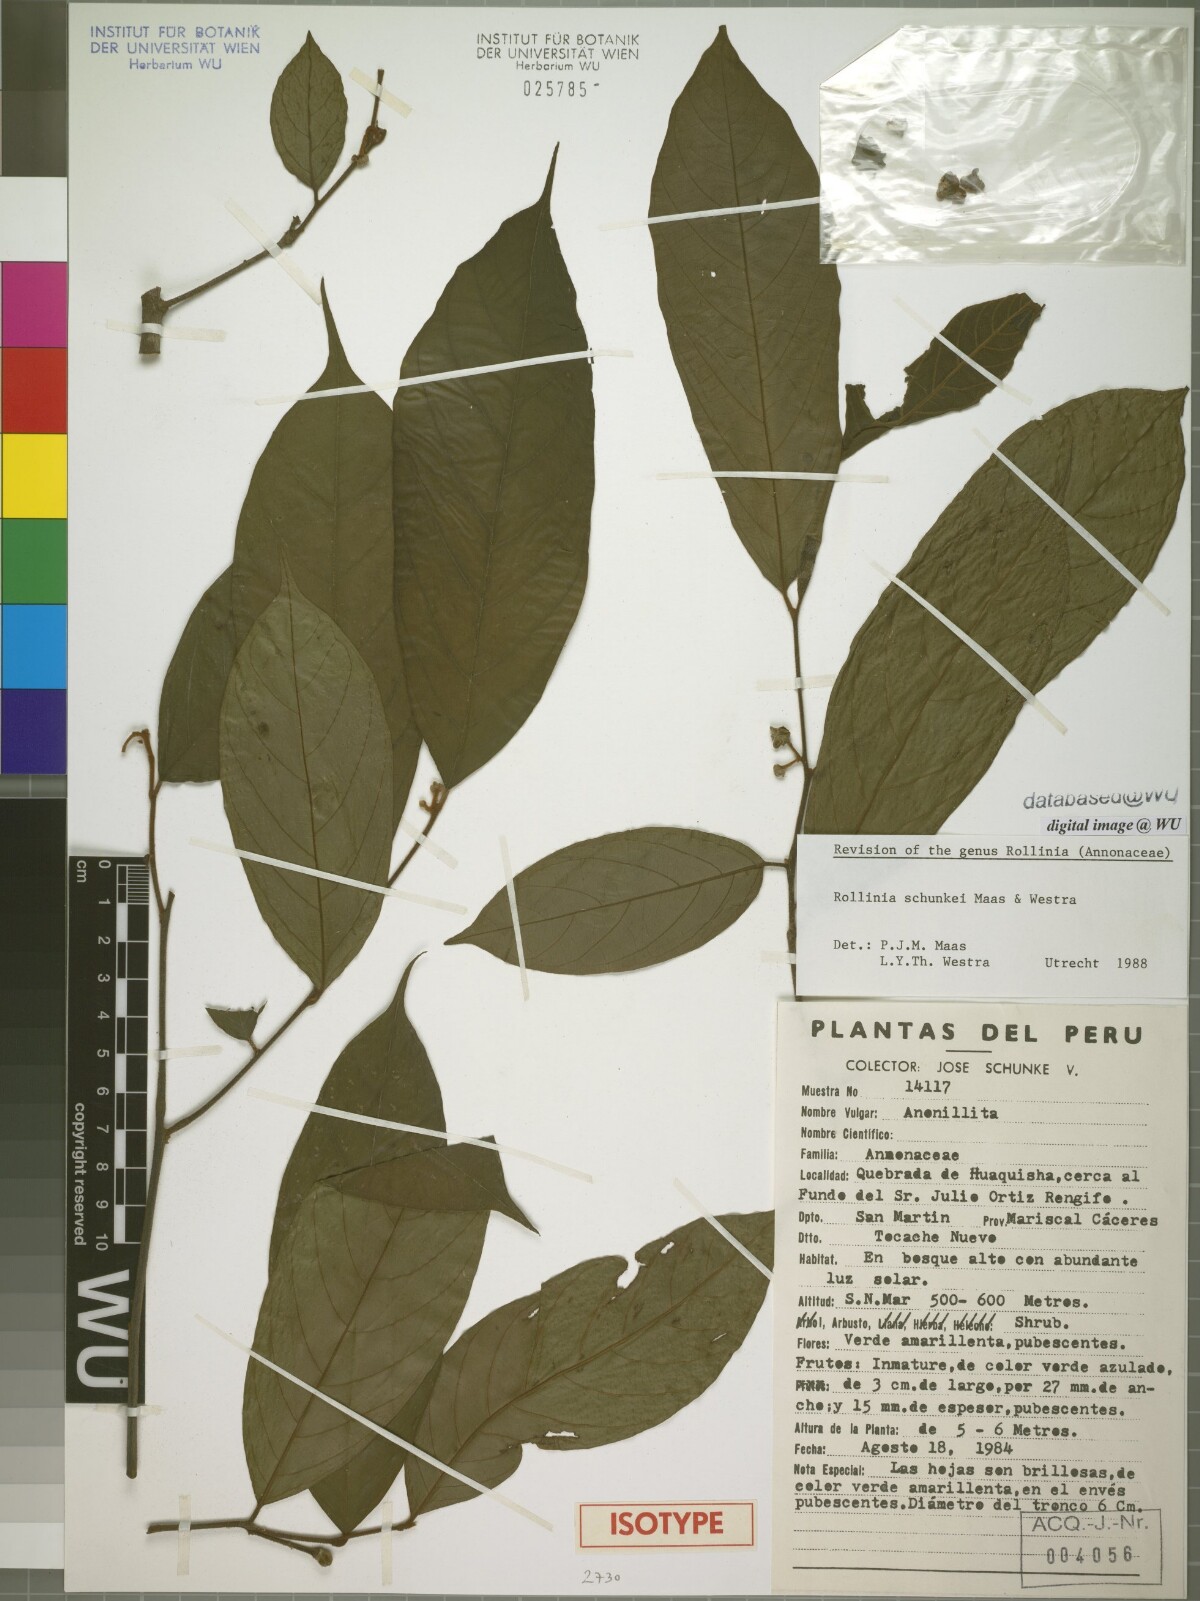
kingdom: Plantae
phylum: Tracheophyta
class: Magnoliopsida
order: Magnoliales
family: Annonaceae
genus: Annona
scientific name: Annona schunkei
